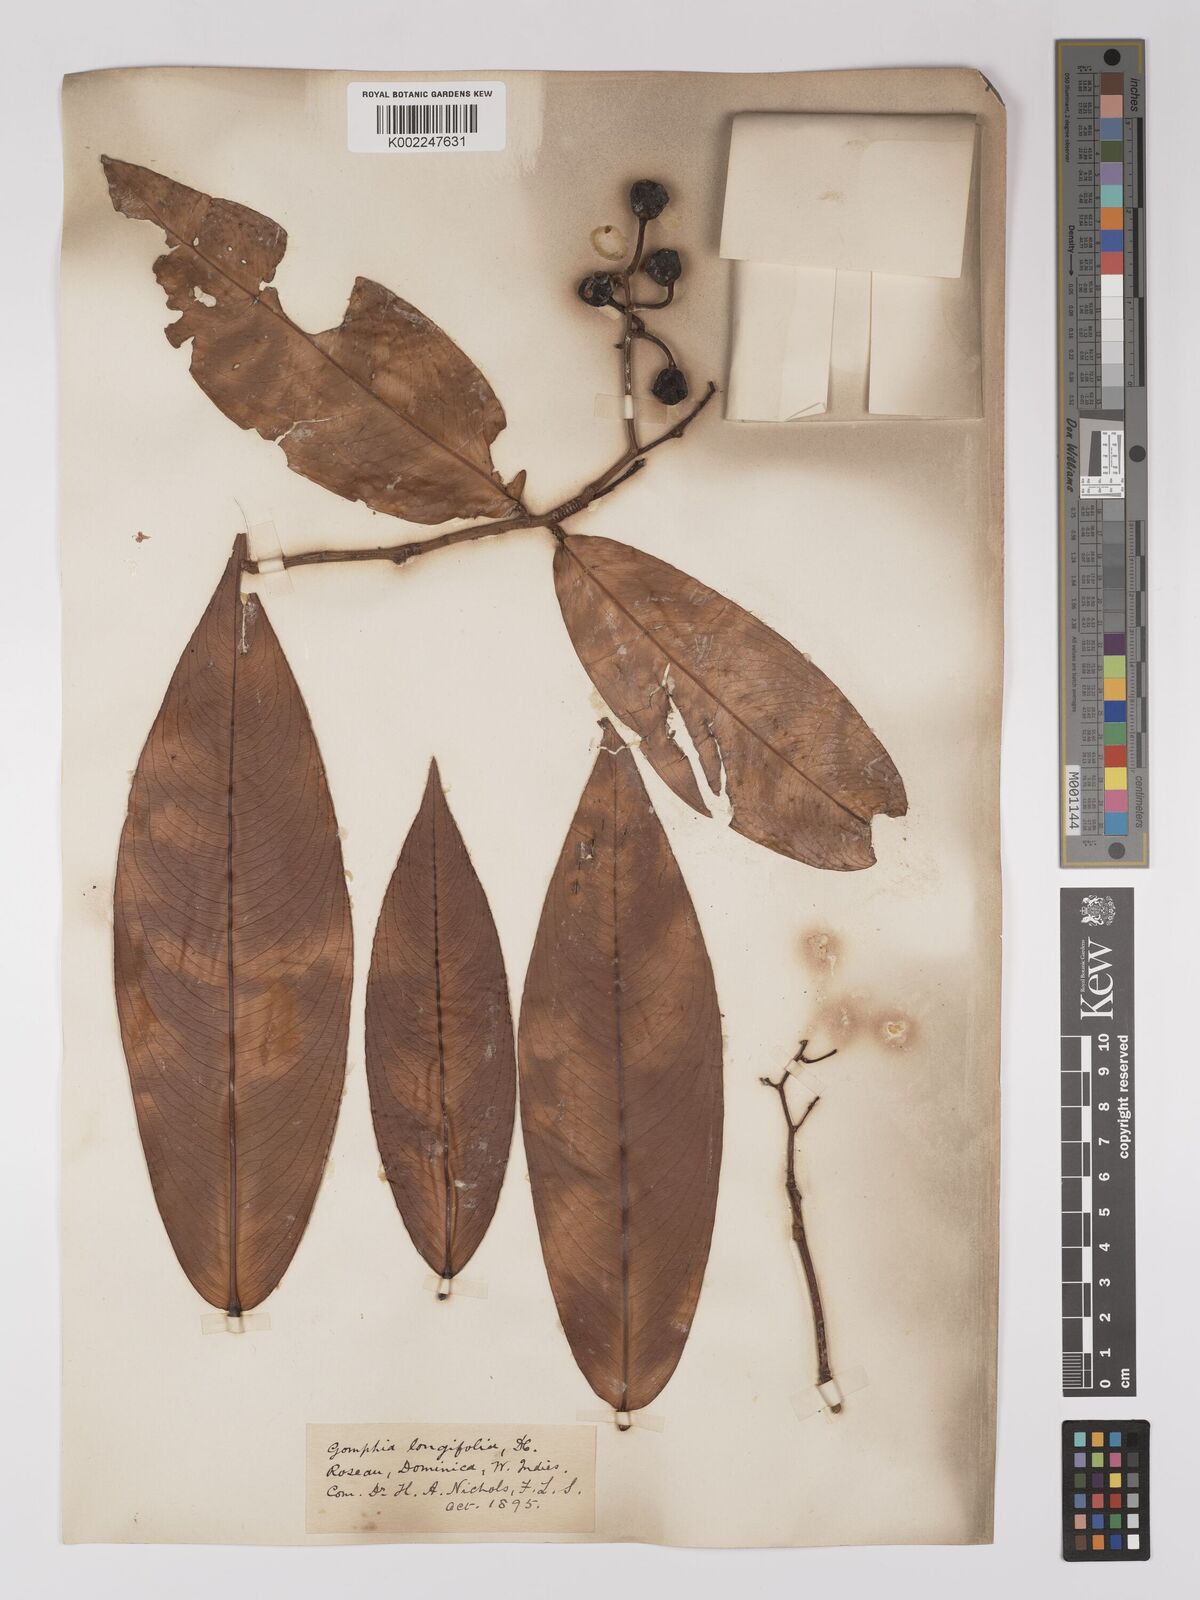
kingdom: Plantae
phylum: Tracheophyta
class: Magnoliopsida
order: Malpighiales
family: Ochnaceae
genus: Ouratea
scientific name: Ouratea longifolia
